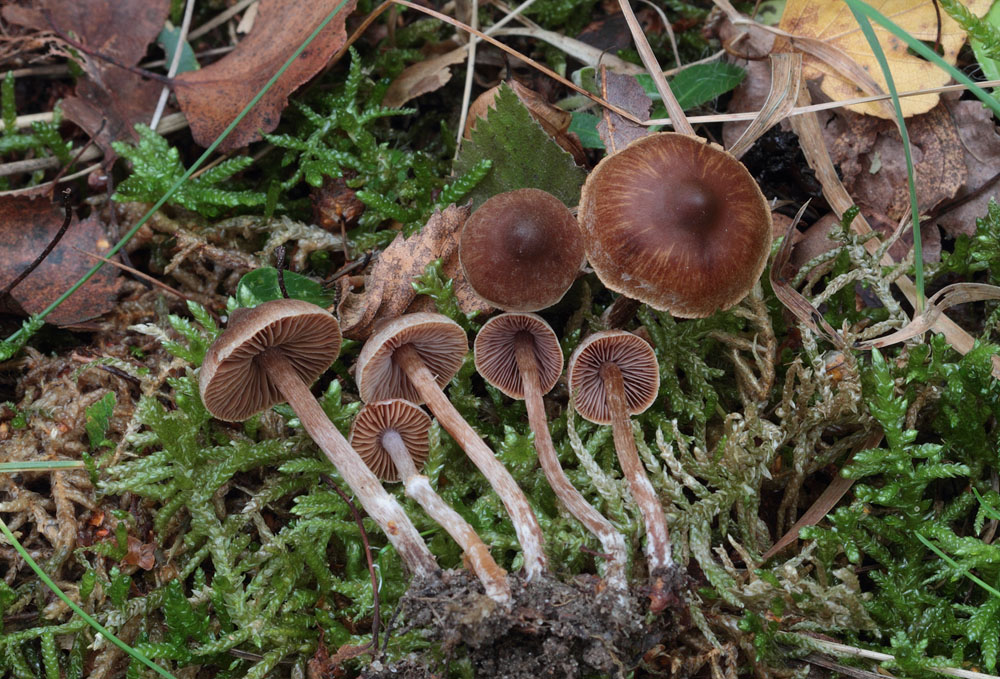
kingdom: Fungi
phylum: Basidiomycota
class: Agaricomycetes
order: Agaricales
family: Cortinariaceae
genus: Cortinarius
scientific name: Cortinarius cistopulchripes
